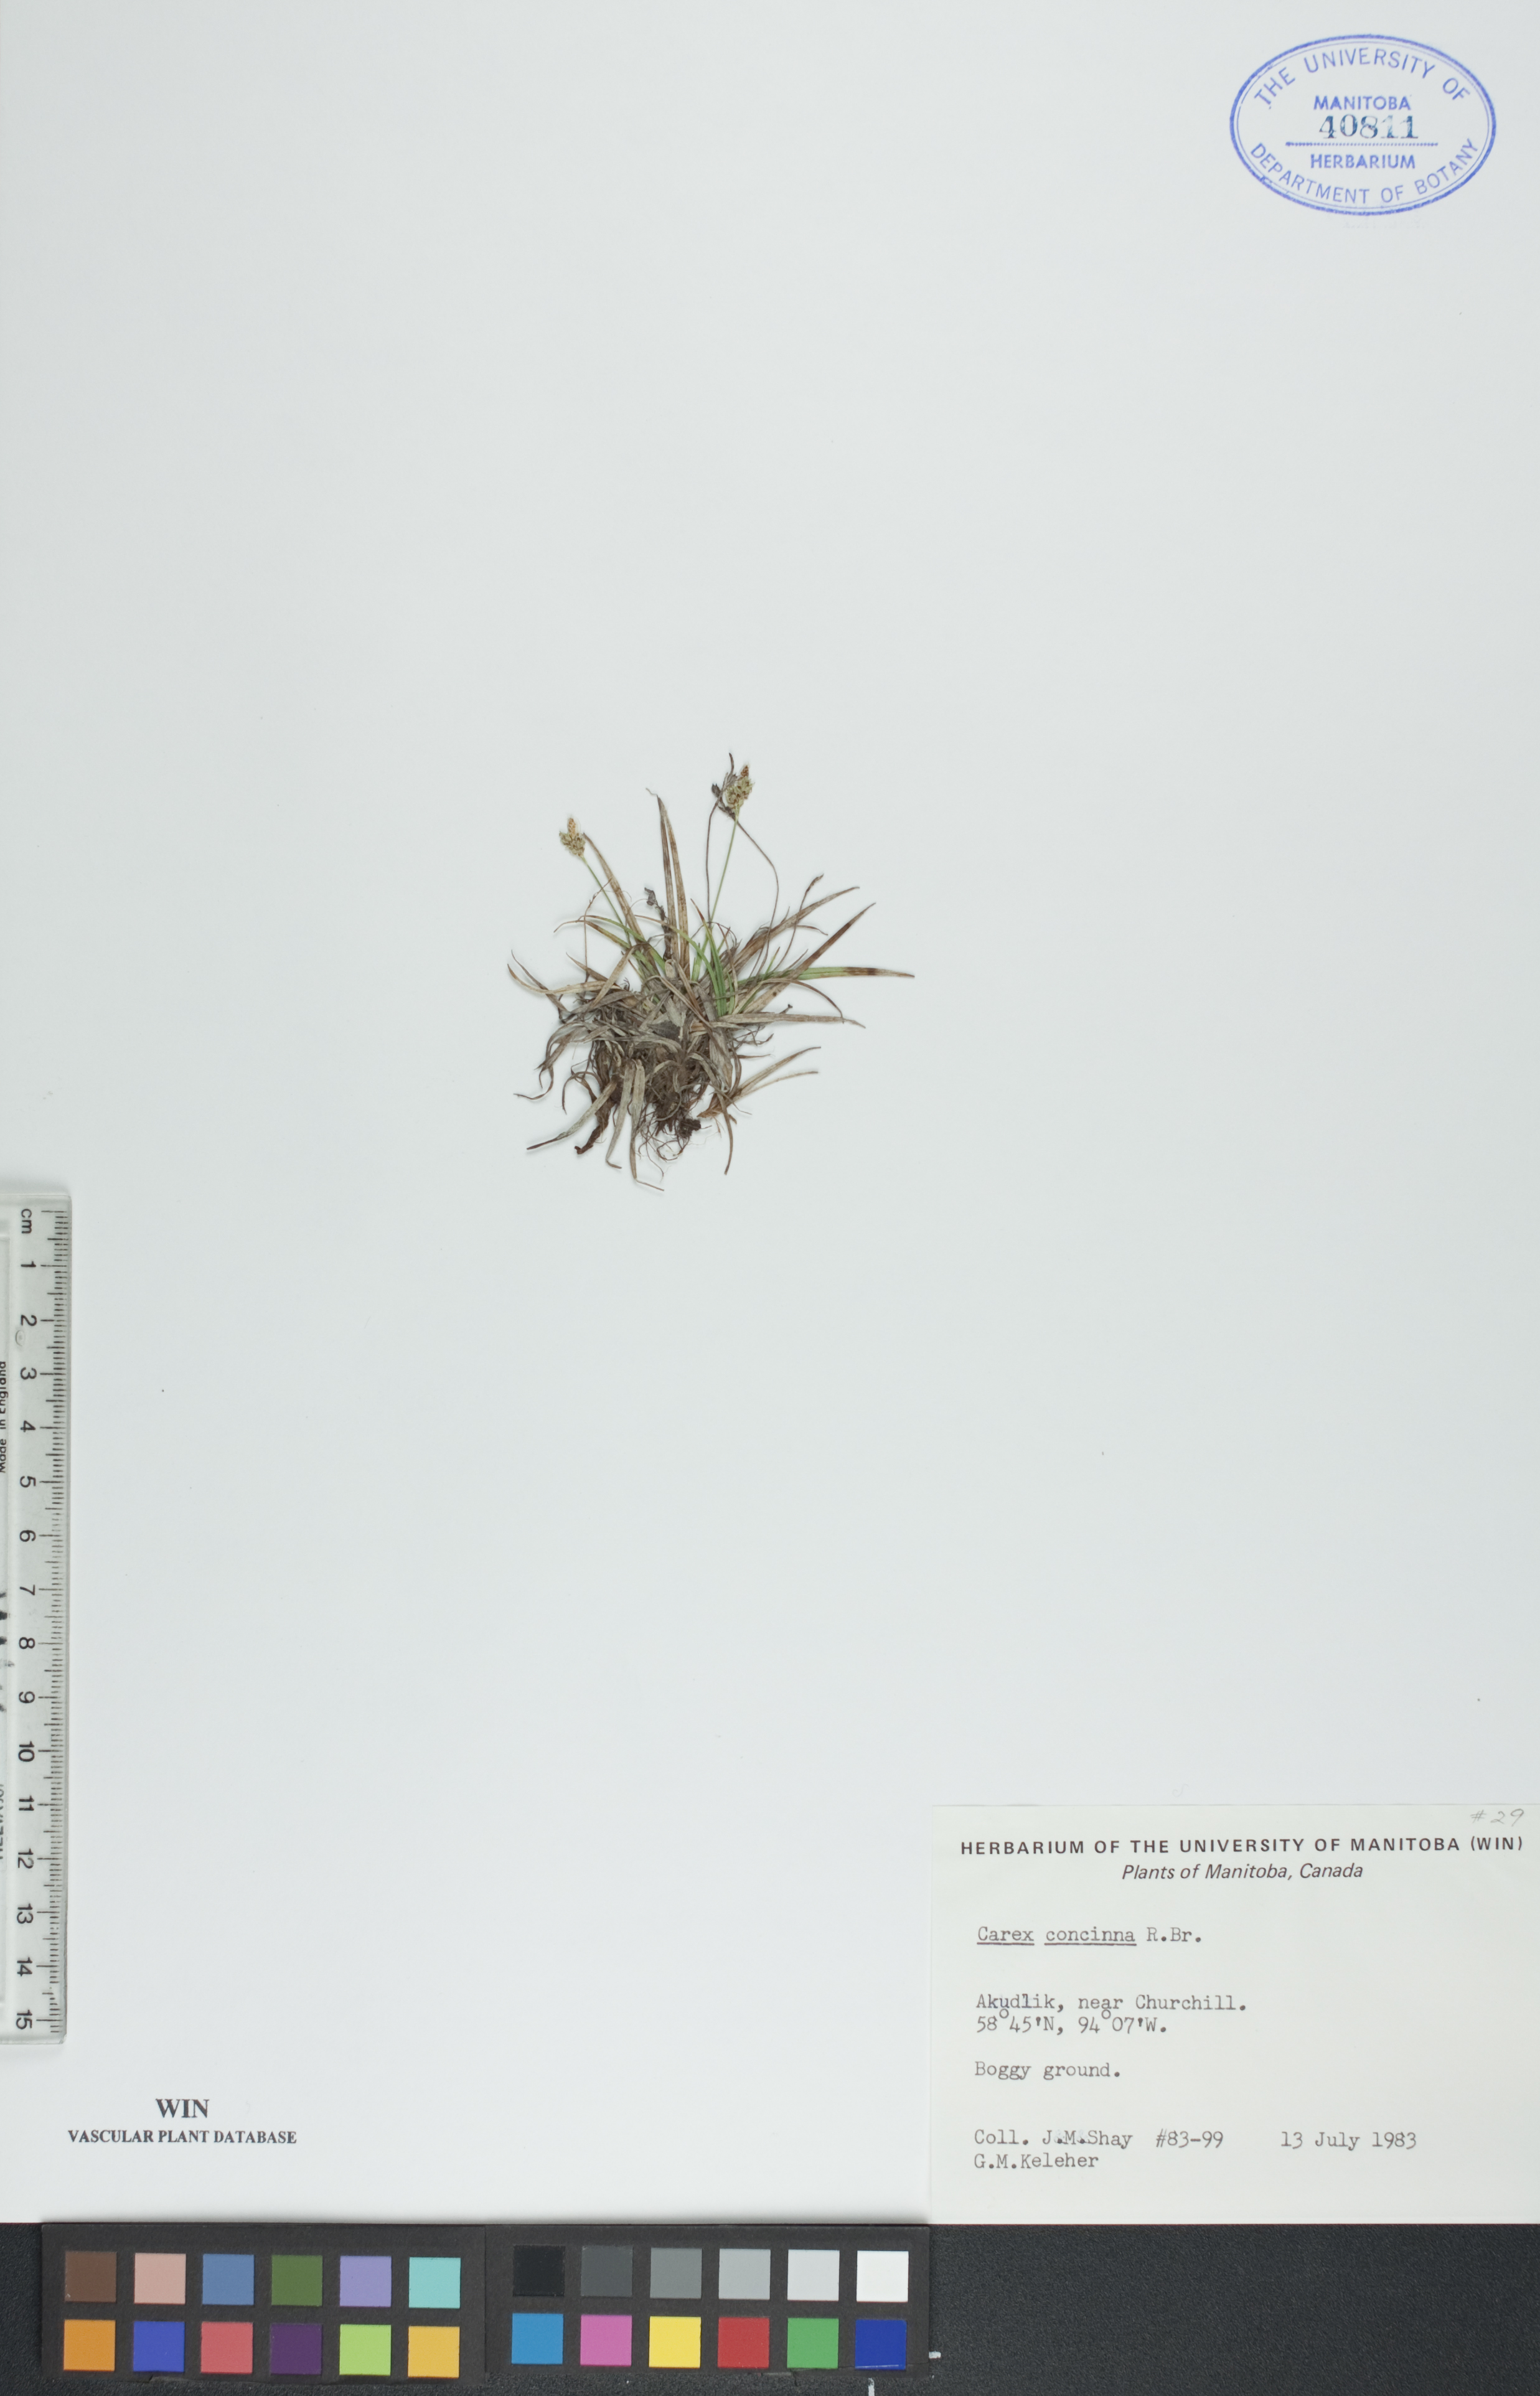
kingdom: Plantae
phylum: Tracheophyta
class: Liliopsida
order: Poales
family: Cyperaceae
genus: Carex
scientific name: Carex concinna
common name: Beautiful sedge
